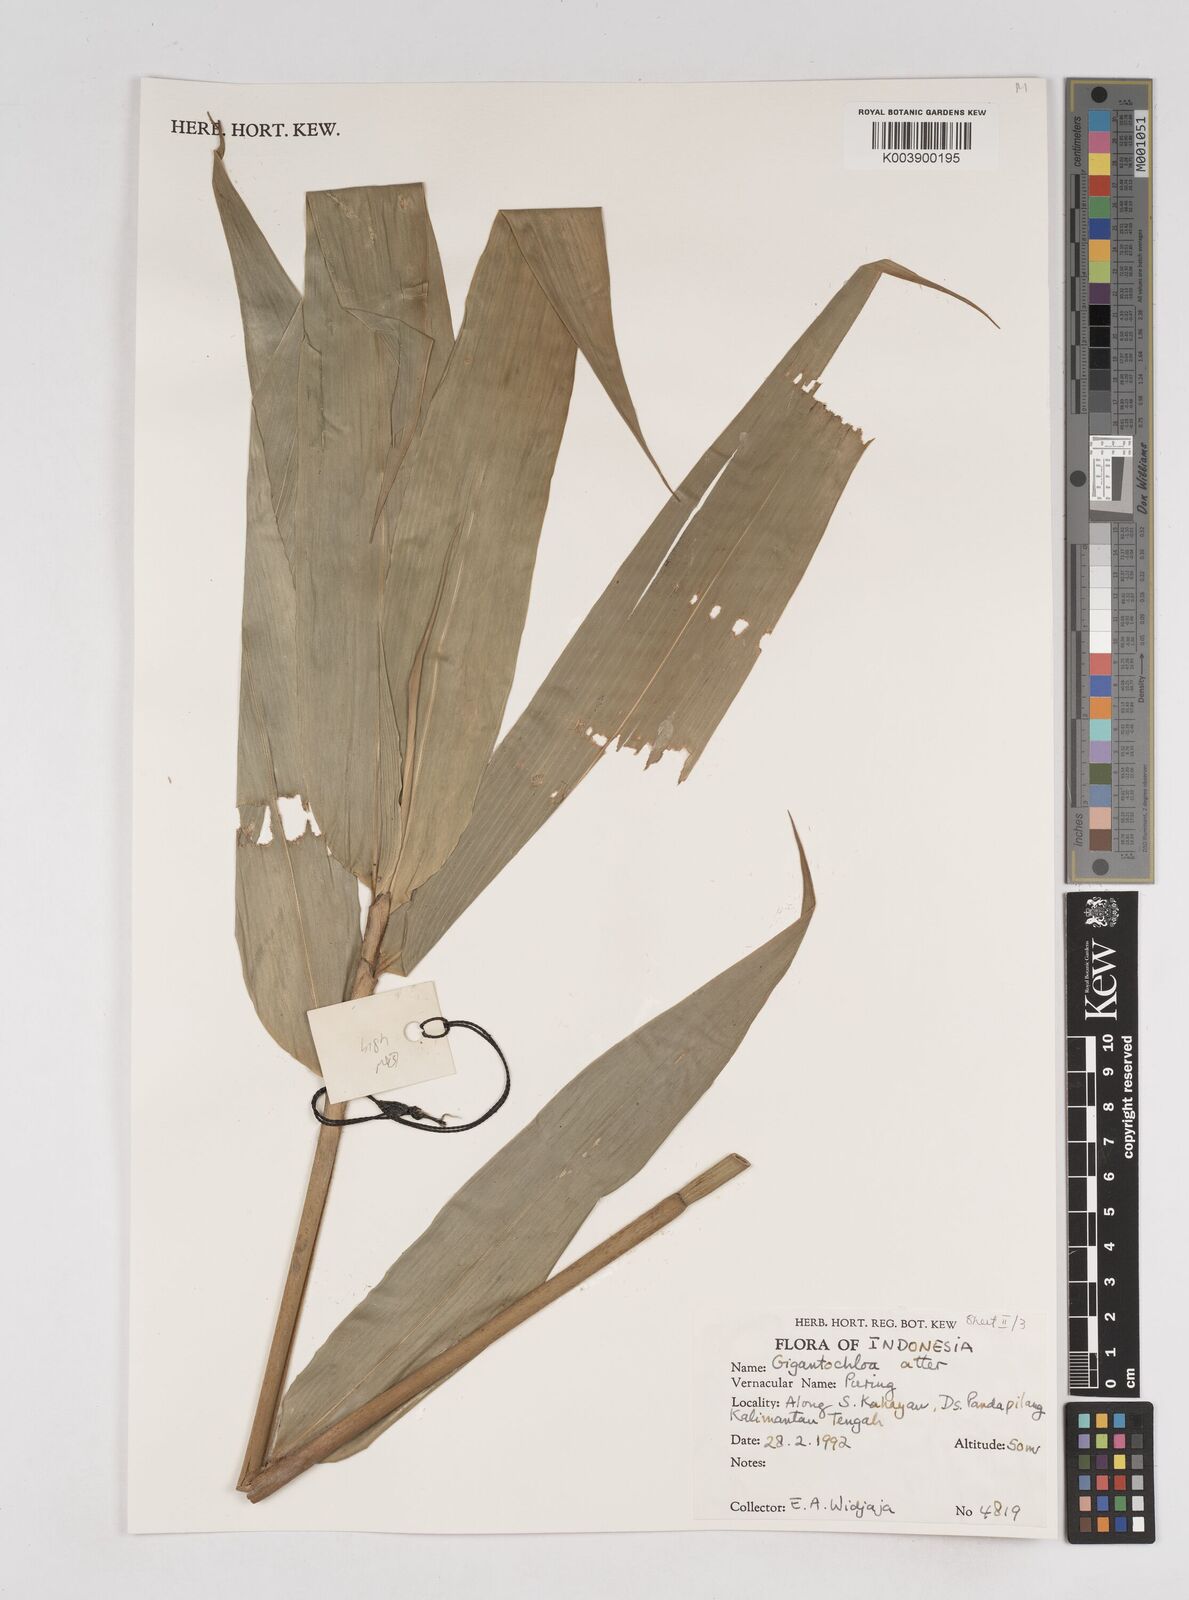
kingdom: Plantae
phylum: Tracheophyta
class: Liliopsida
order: Poales
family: Poaceae
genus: Gigantochloa
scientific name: Gigantochloa atter
